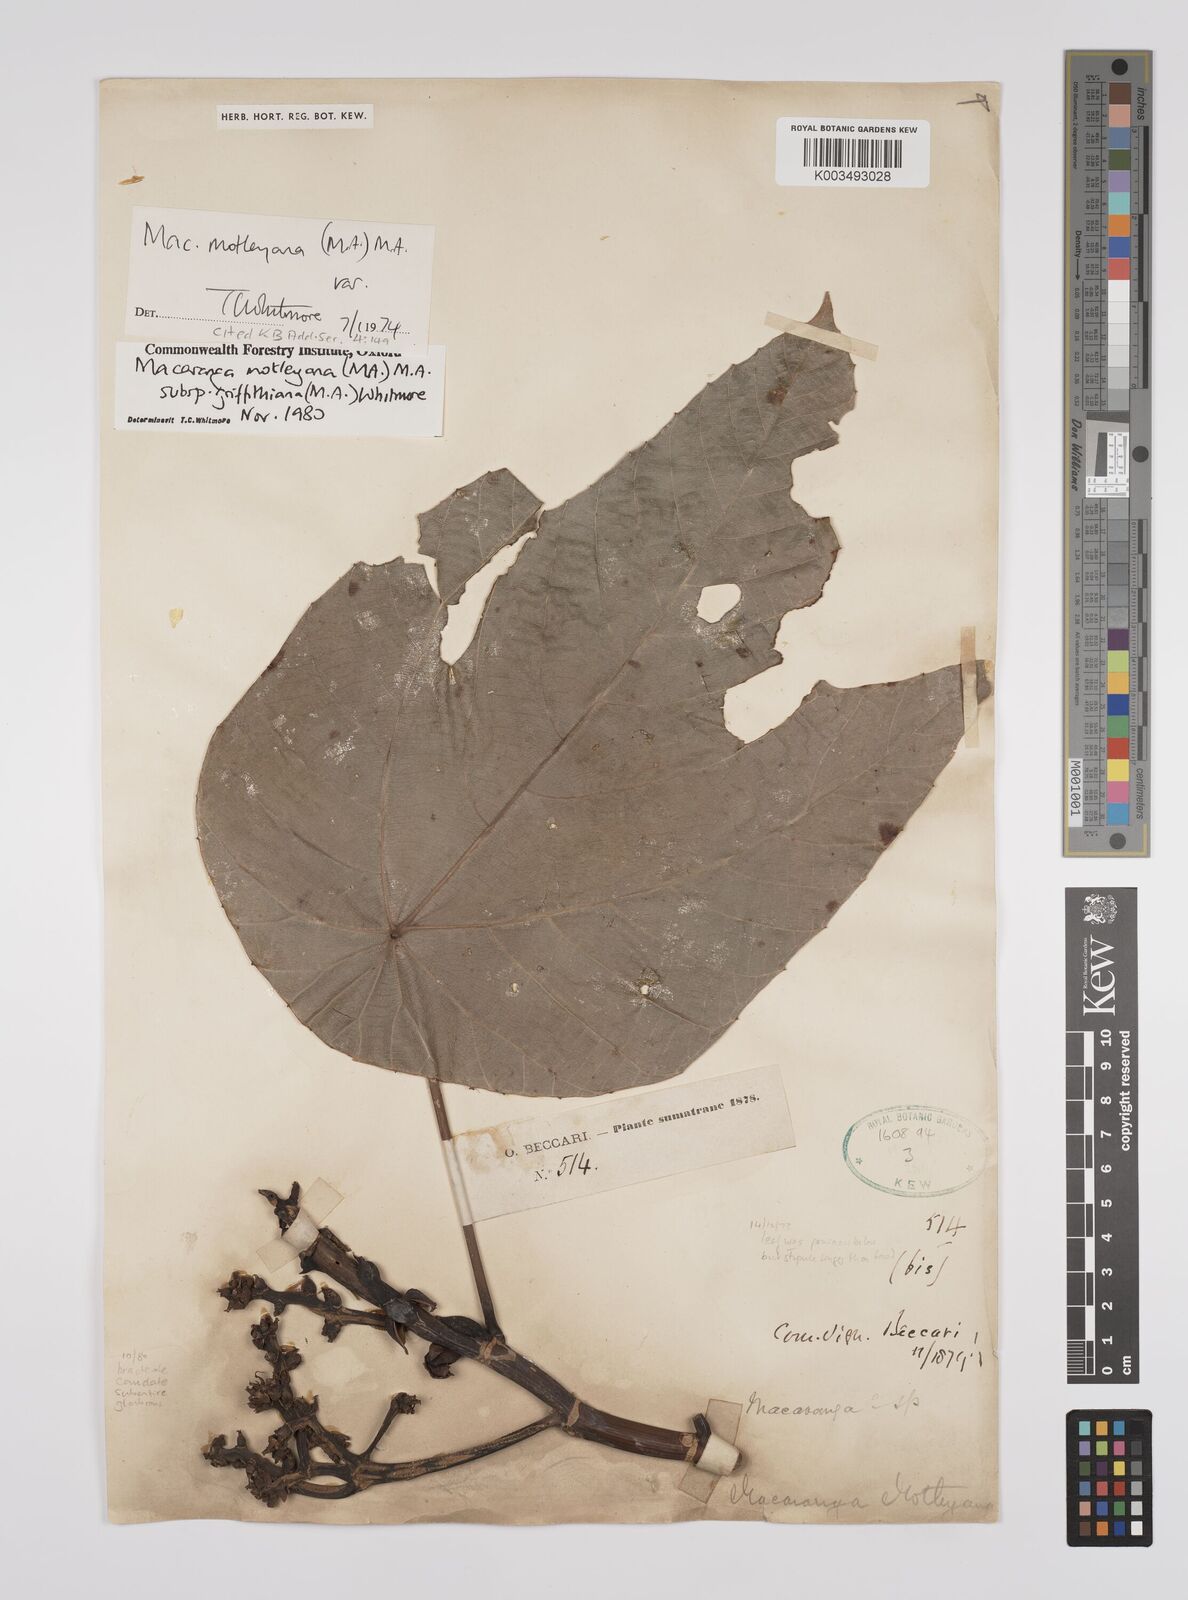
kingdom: Plantae
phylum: Tracheophyta
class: Magnoliopsida
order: Malpighiales
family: Euphorbiaceae
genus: Macaranga
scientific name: Macaranga griffithiana
